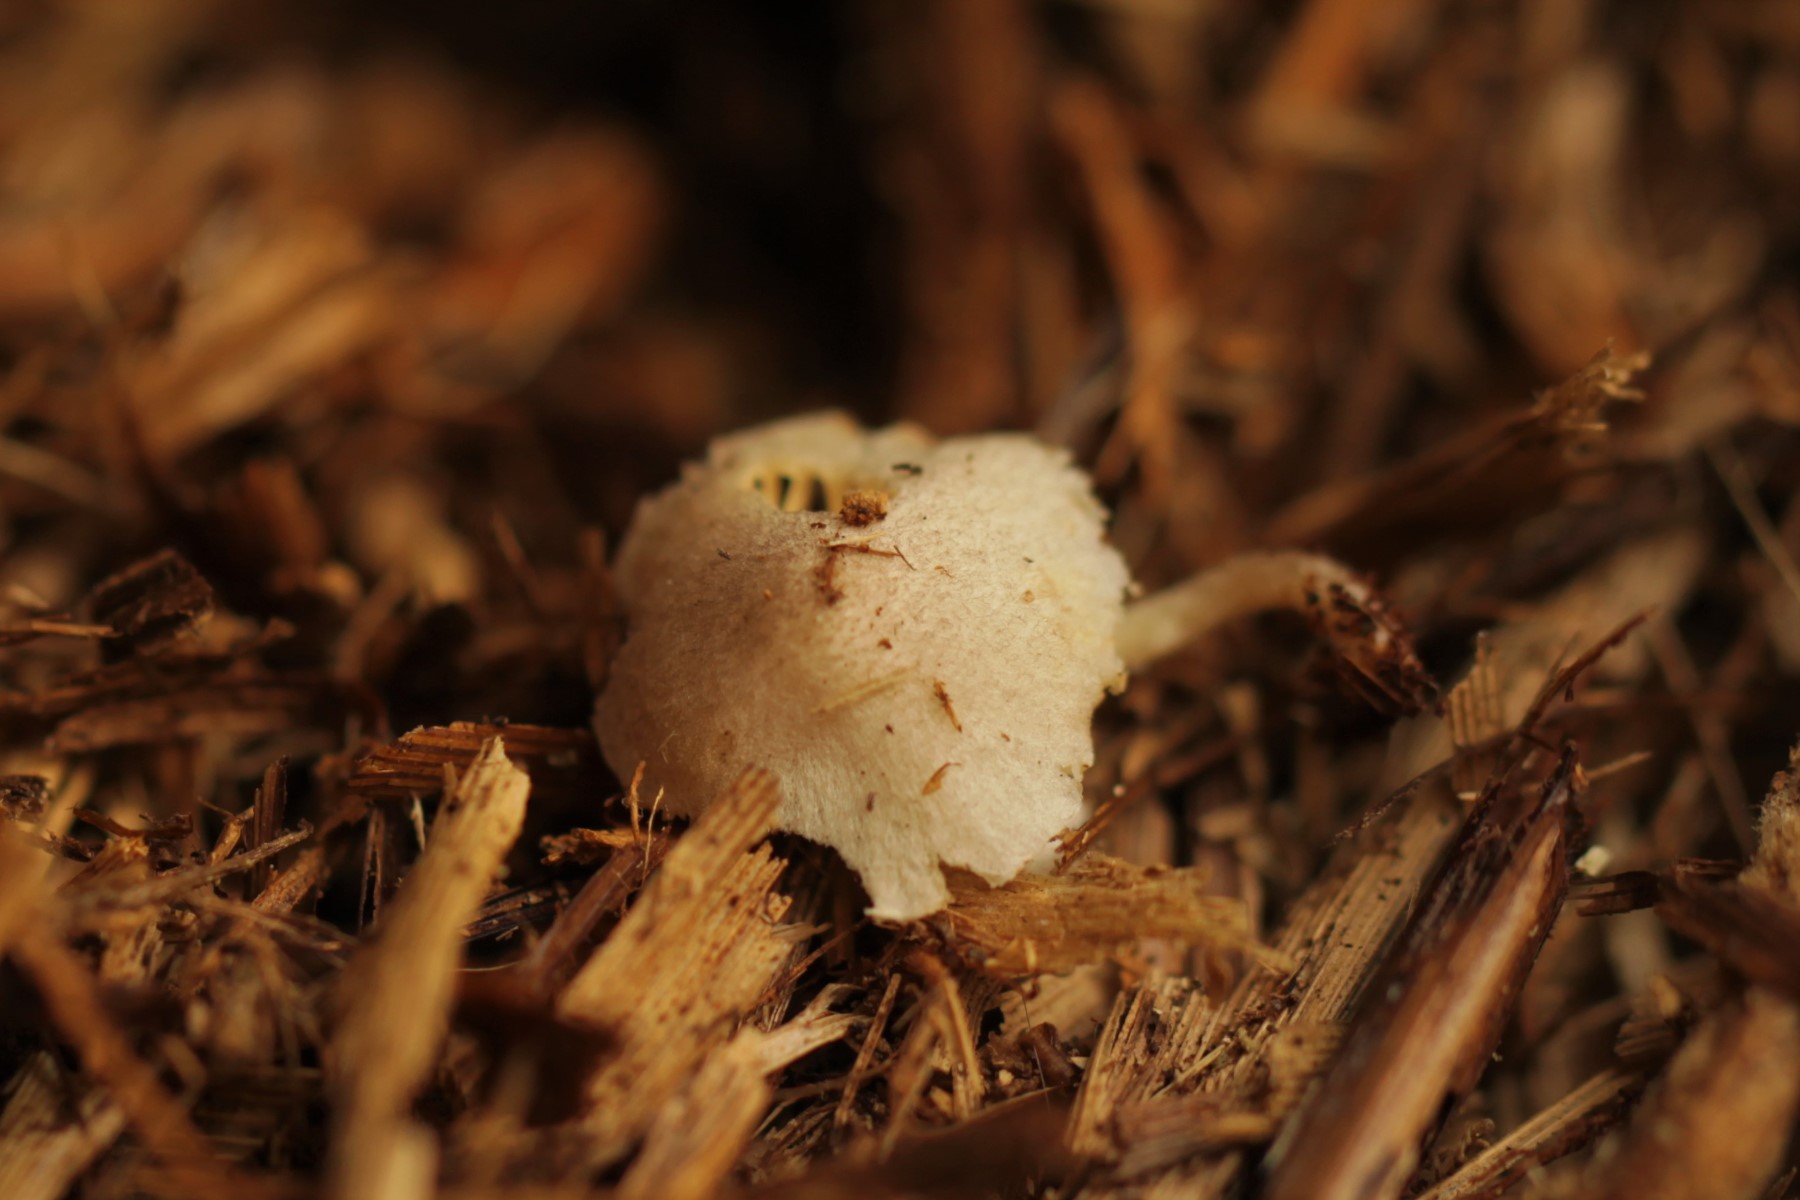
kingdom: Fungi
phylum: Basidiomycota
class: Agaricomycetes
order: Agaricales
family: Agaricaceae
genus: Leucoagaricus
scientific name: Leucoagaricus melanotrichus
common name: gråhåret silkehat
